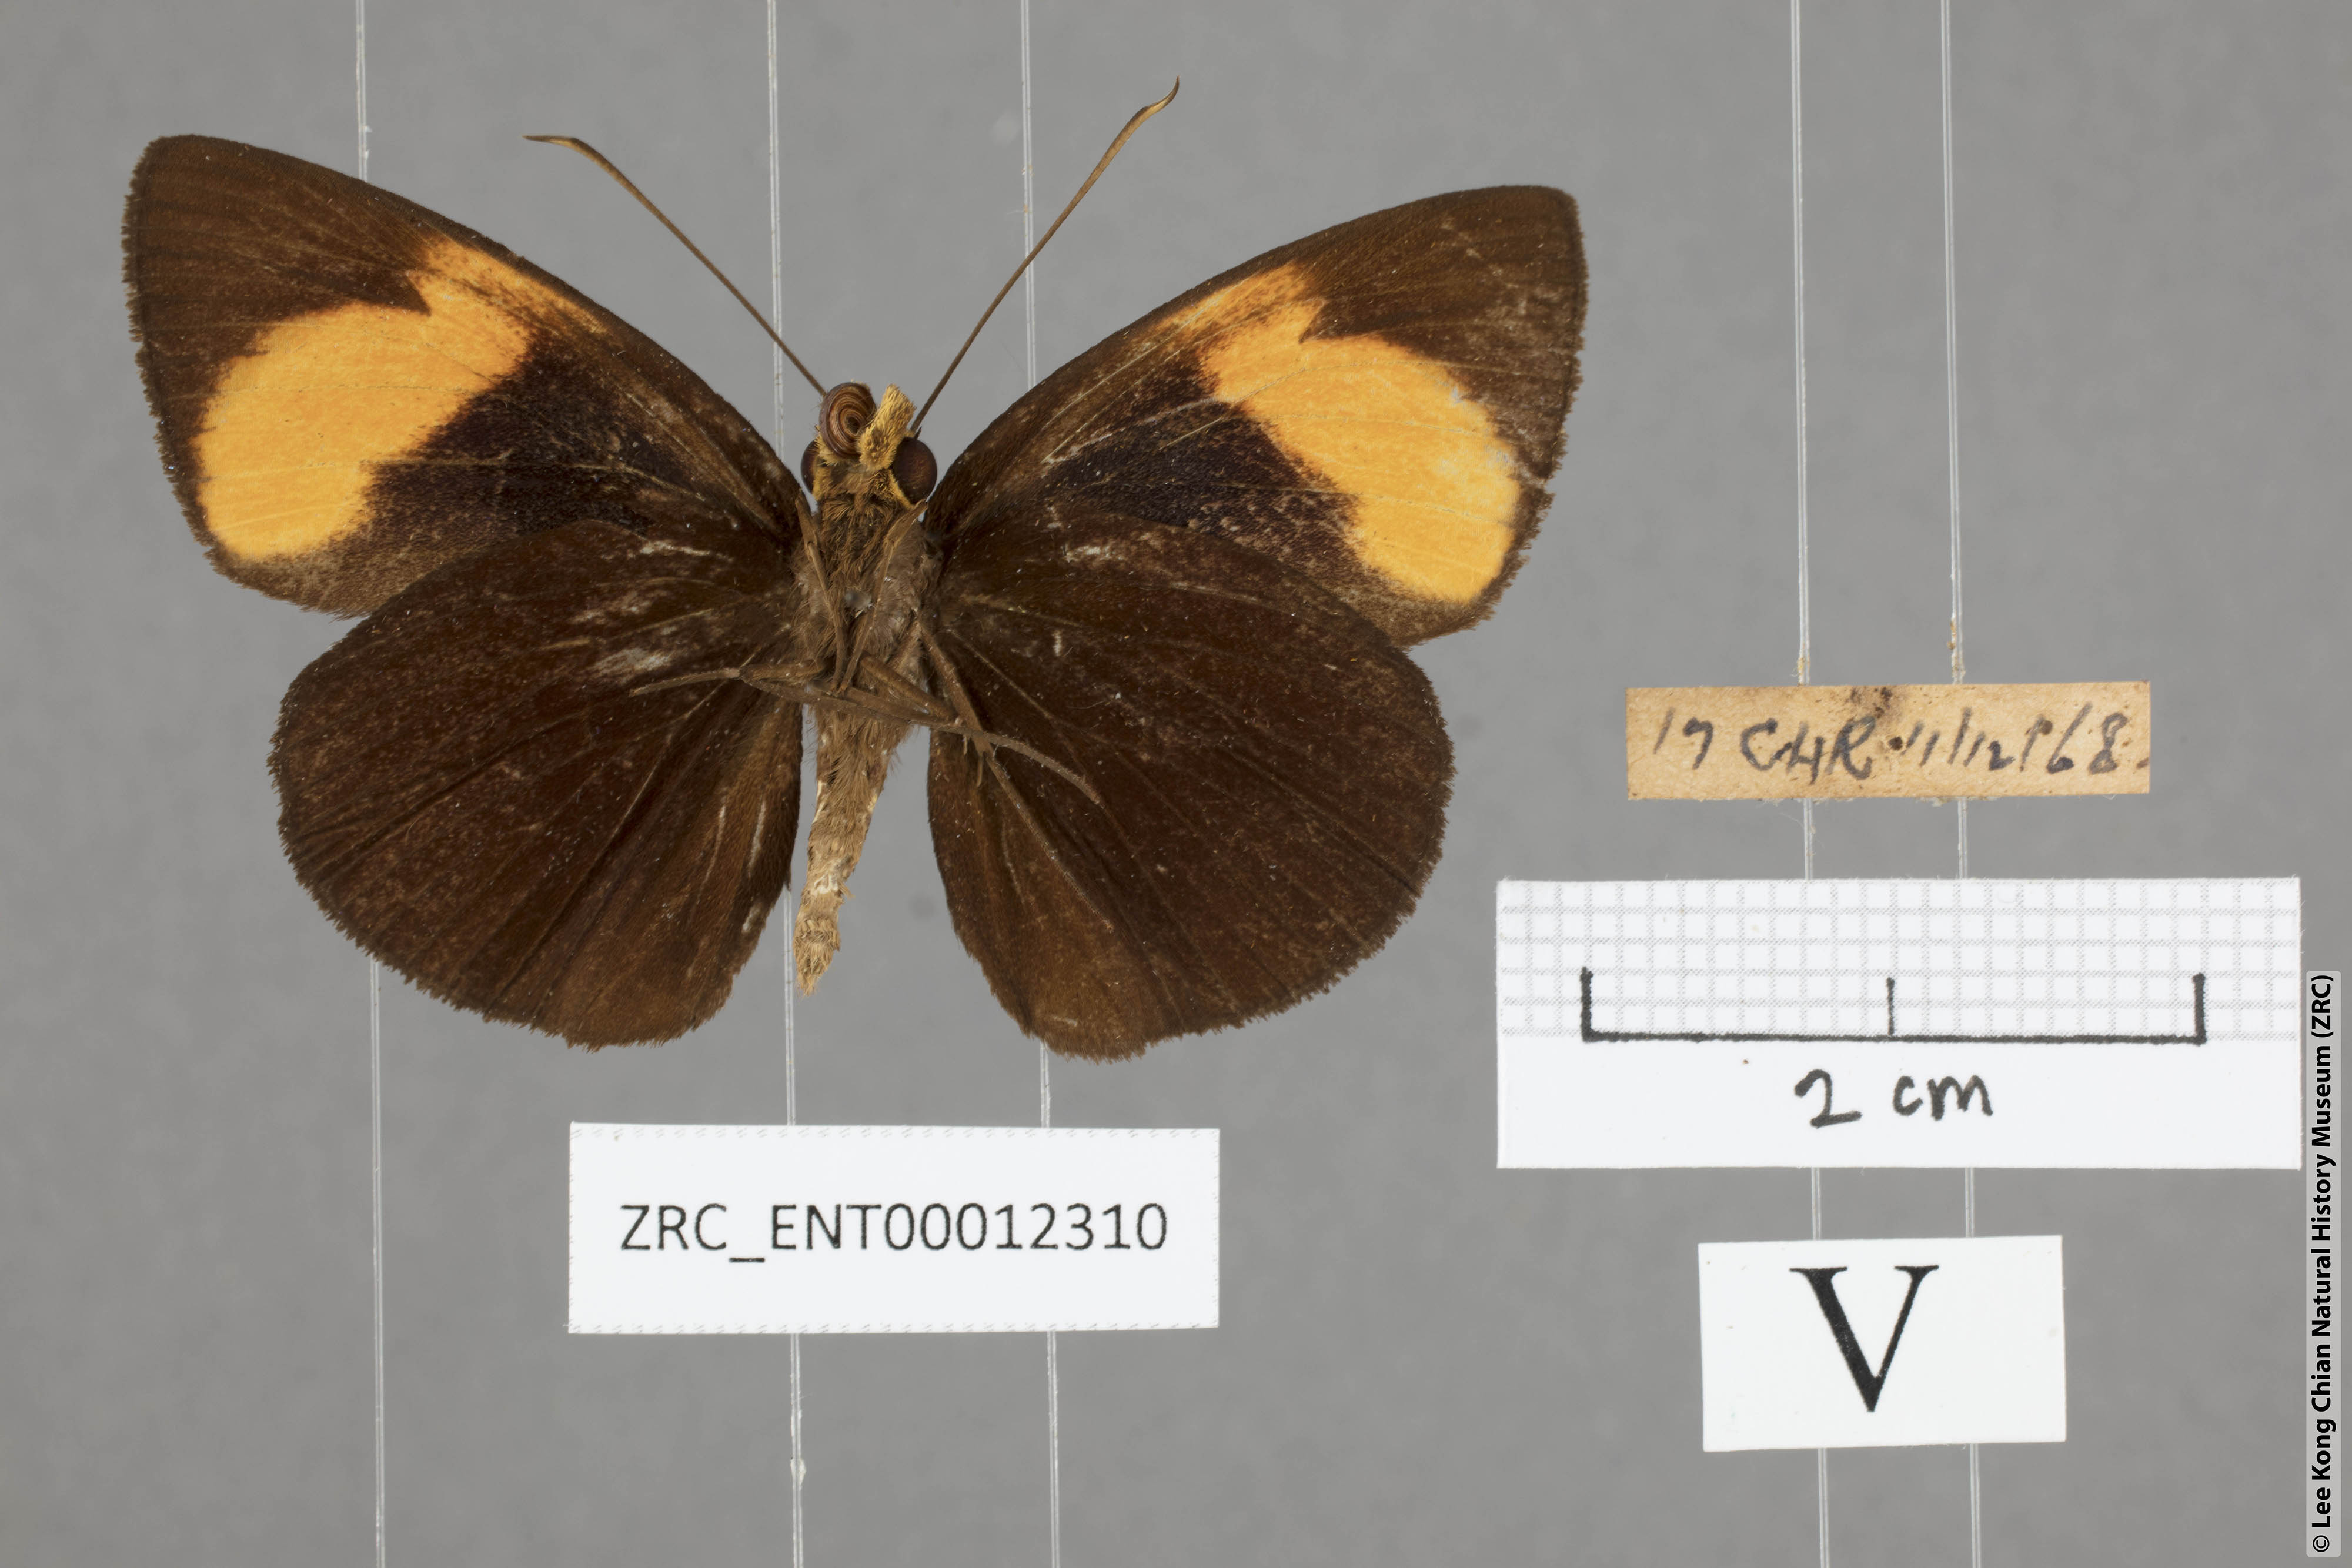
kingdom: Animalia
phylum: Arthropoda
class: Insecta
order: Lepidoptera
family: Hesperiidae
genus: Ancistroides
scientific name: Ancistroides armatus
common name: Red demon
